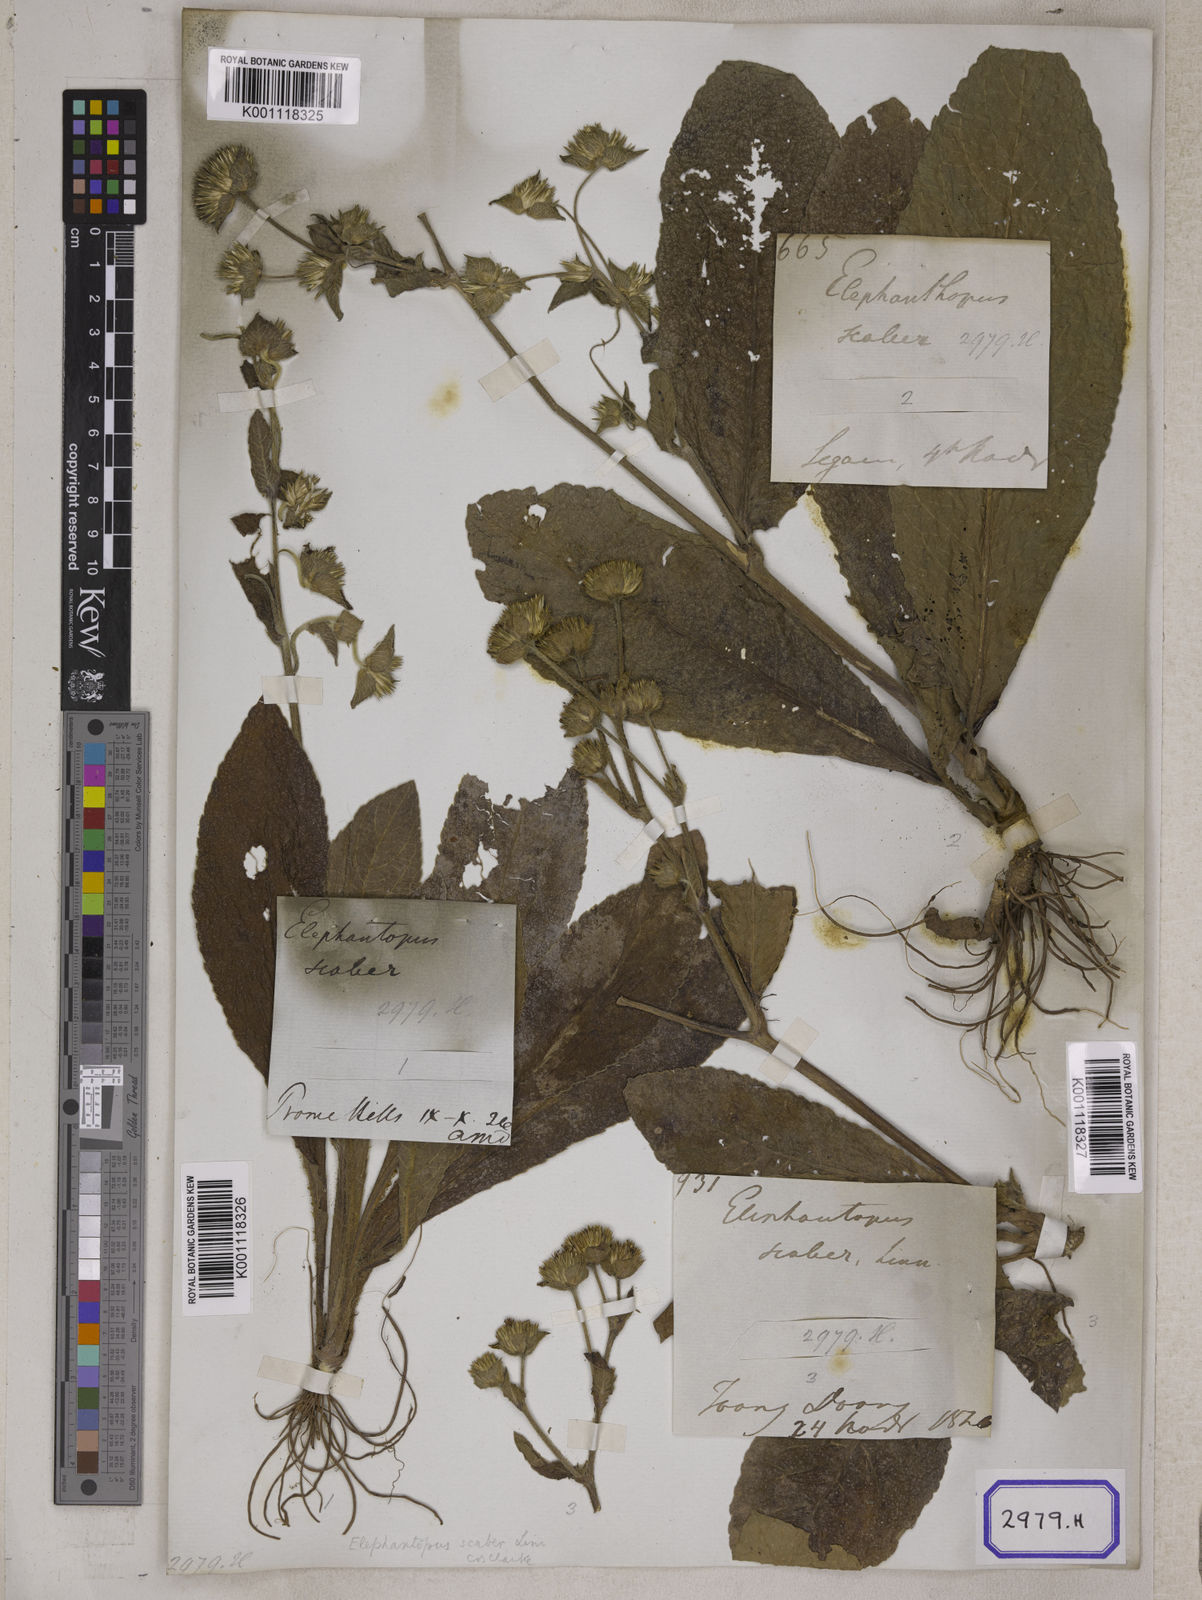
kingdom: Plantae
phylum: Tracheophyta
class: Magnoliopsida
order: Asterales
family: Asteraceae
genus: Elephantopus
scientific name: Elephantopus scaber
